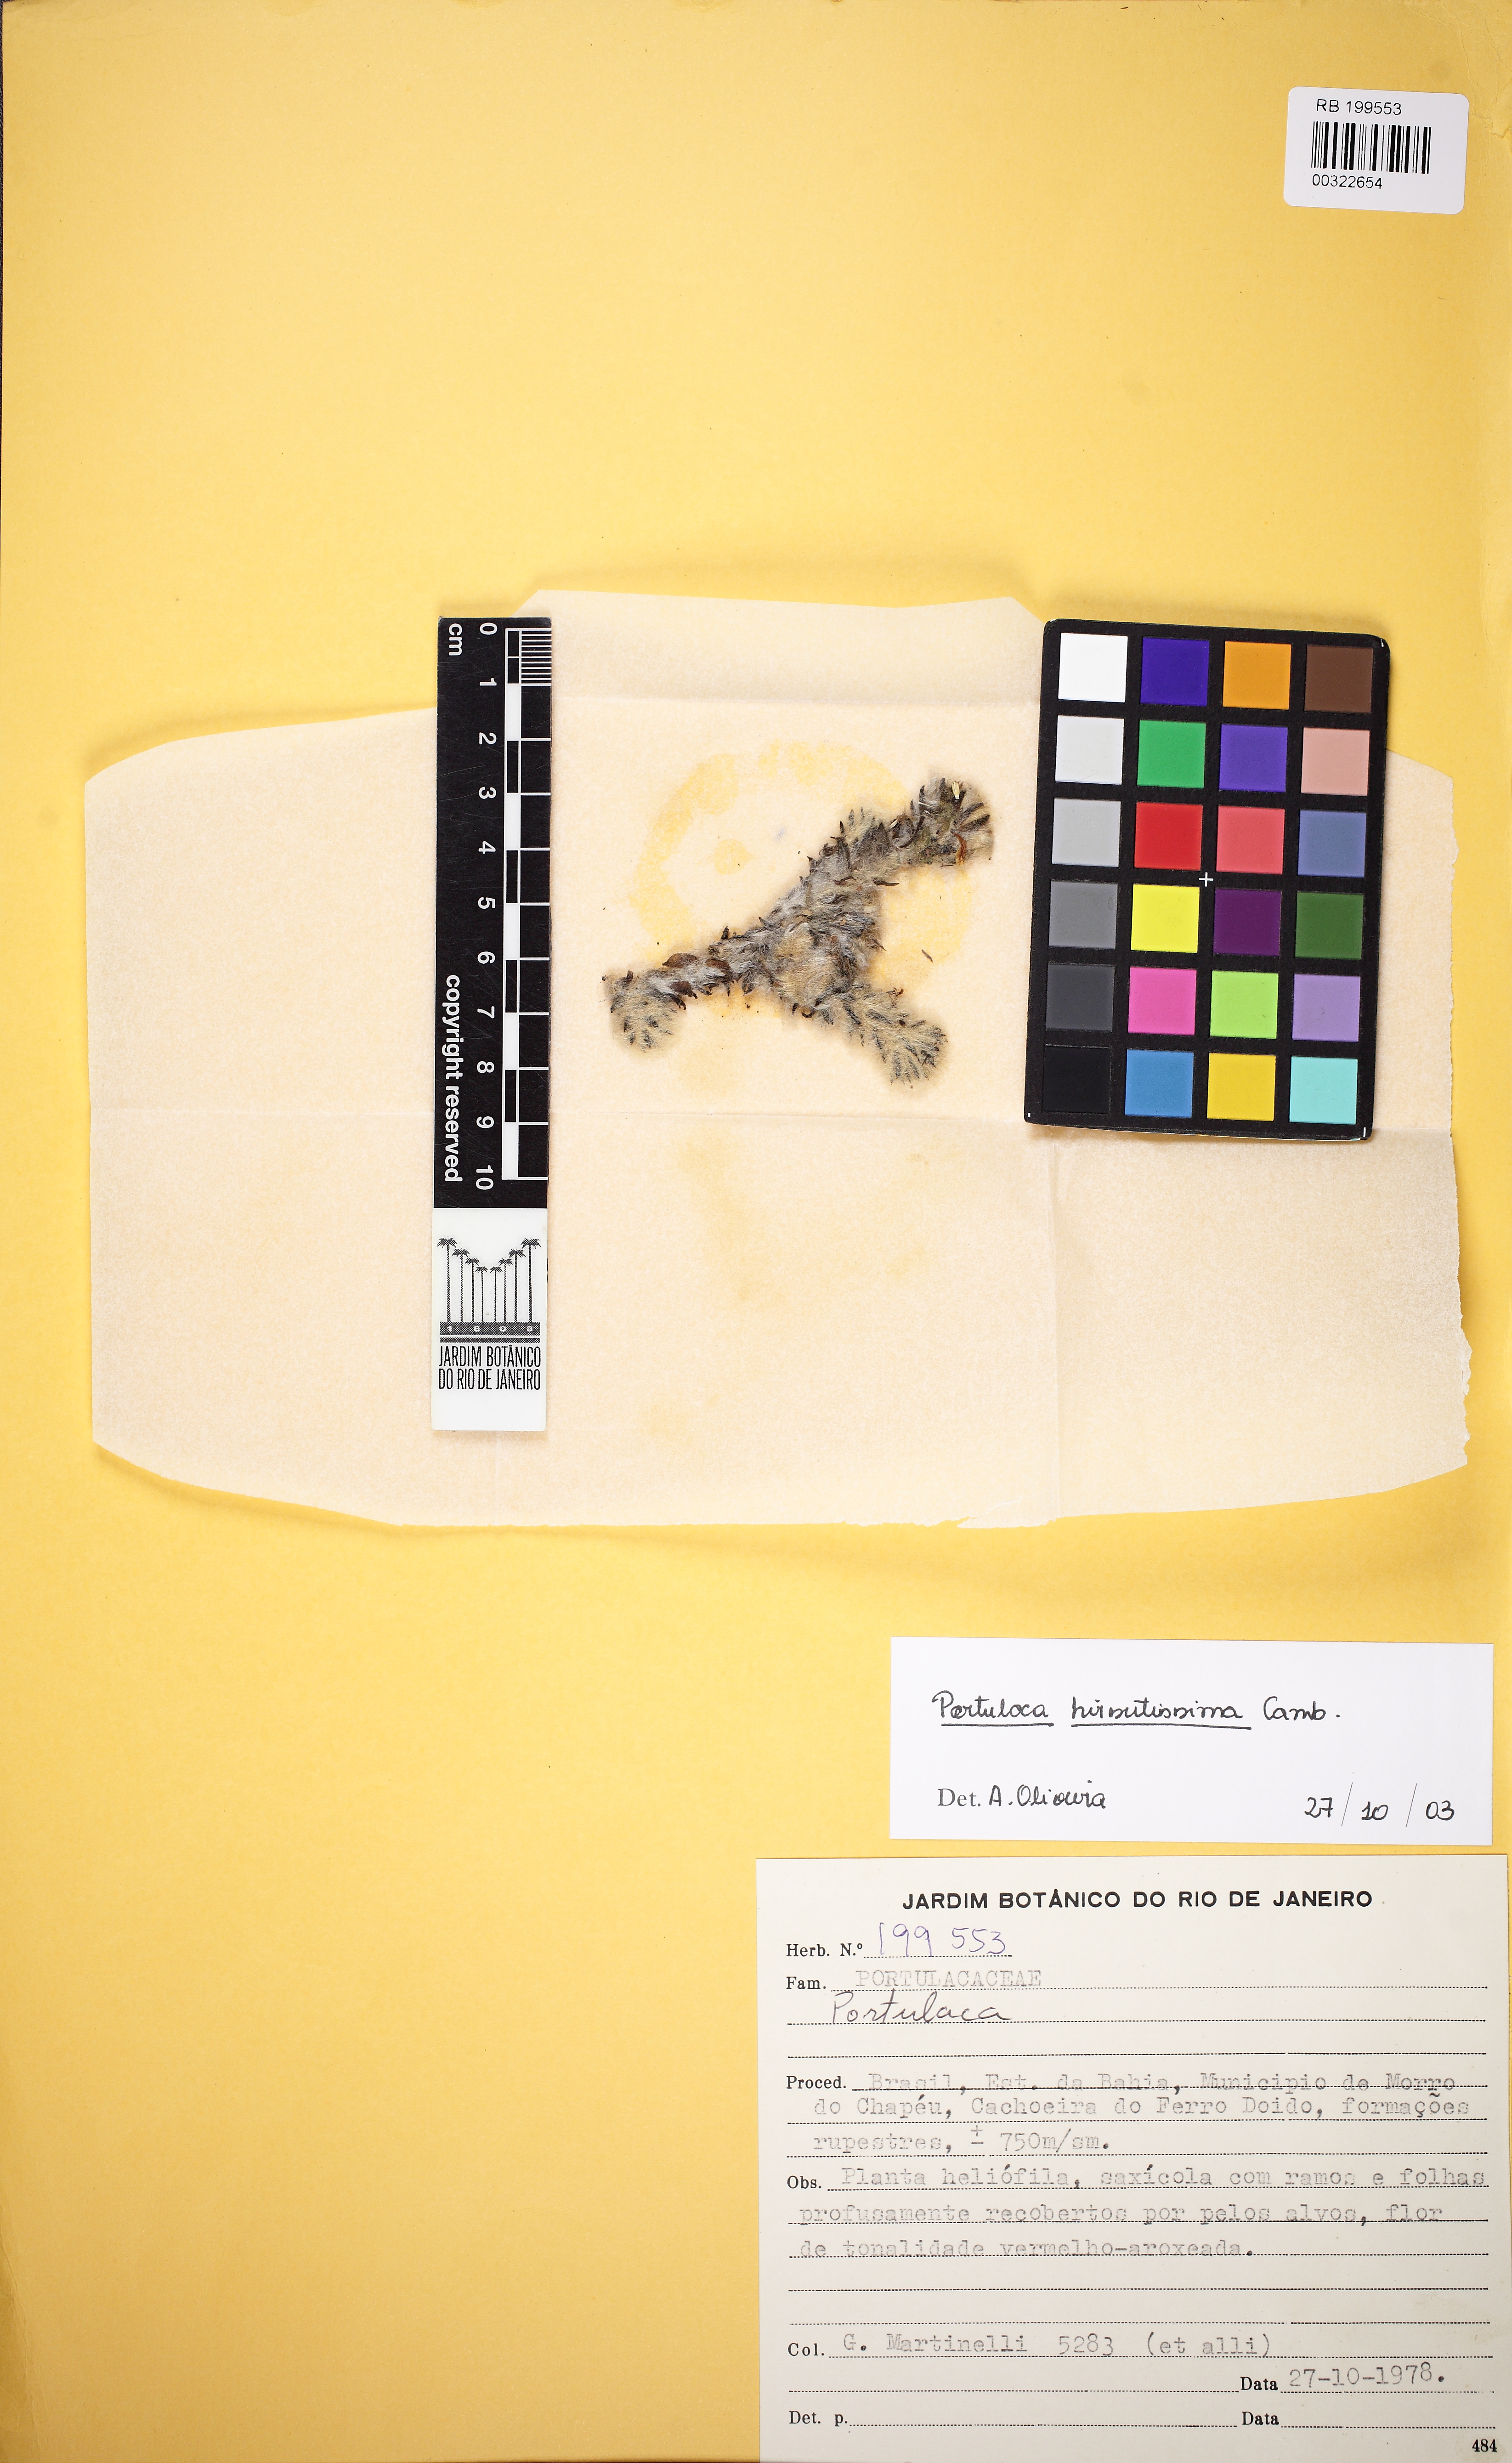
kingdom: Plantae
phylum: Tracheophyta
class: Magnoliopsida
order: Caryophyllales
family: Portulacaceae
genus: Portulaca
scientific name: Portulaca hirsutissima
